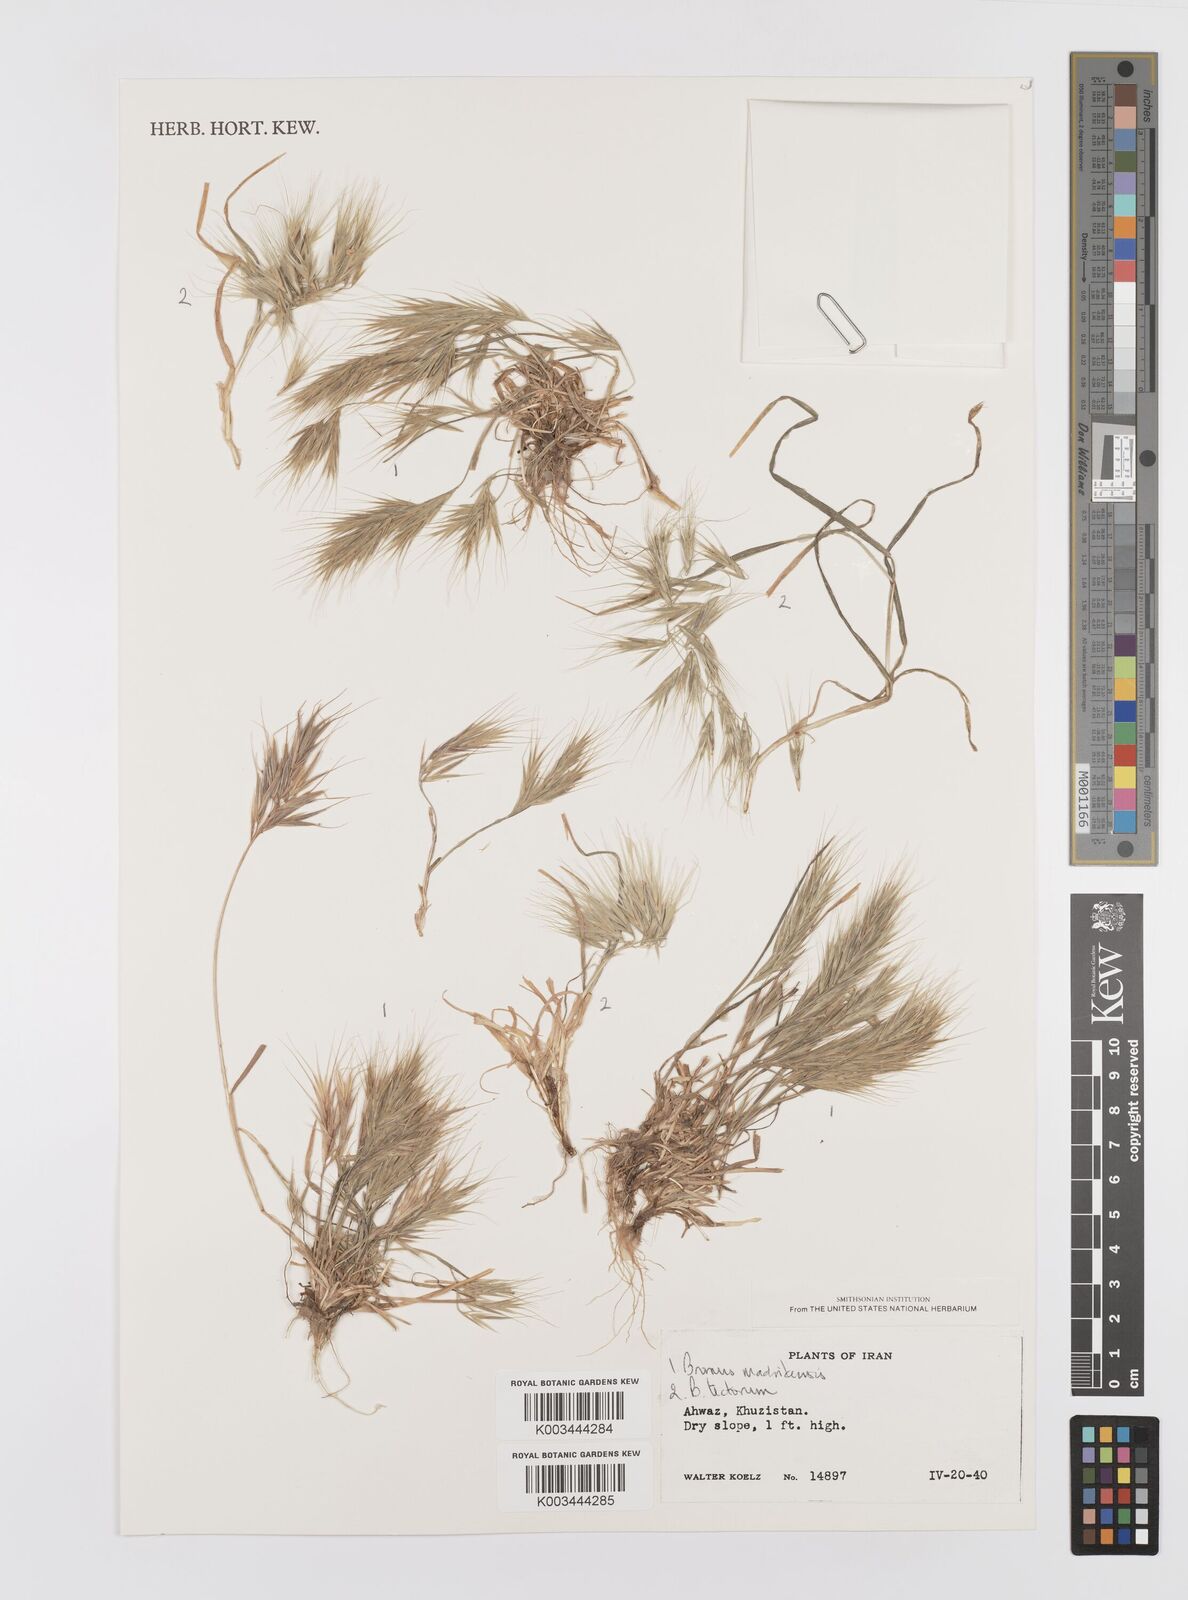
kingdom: Plantae
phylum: Tracheophyta
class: Liliopsida
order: Poales
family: Poaceae
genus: Bromus
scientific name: Bromus madritensis
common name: Compact brome
